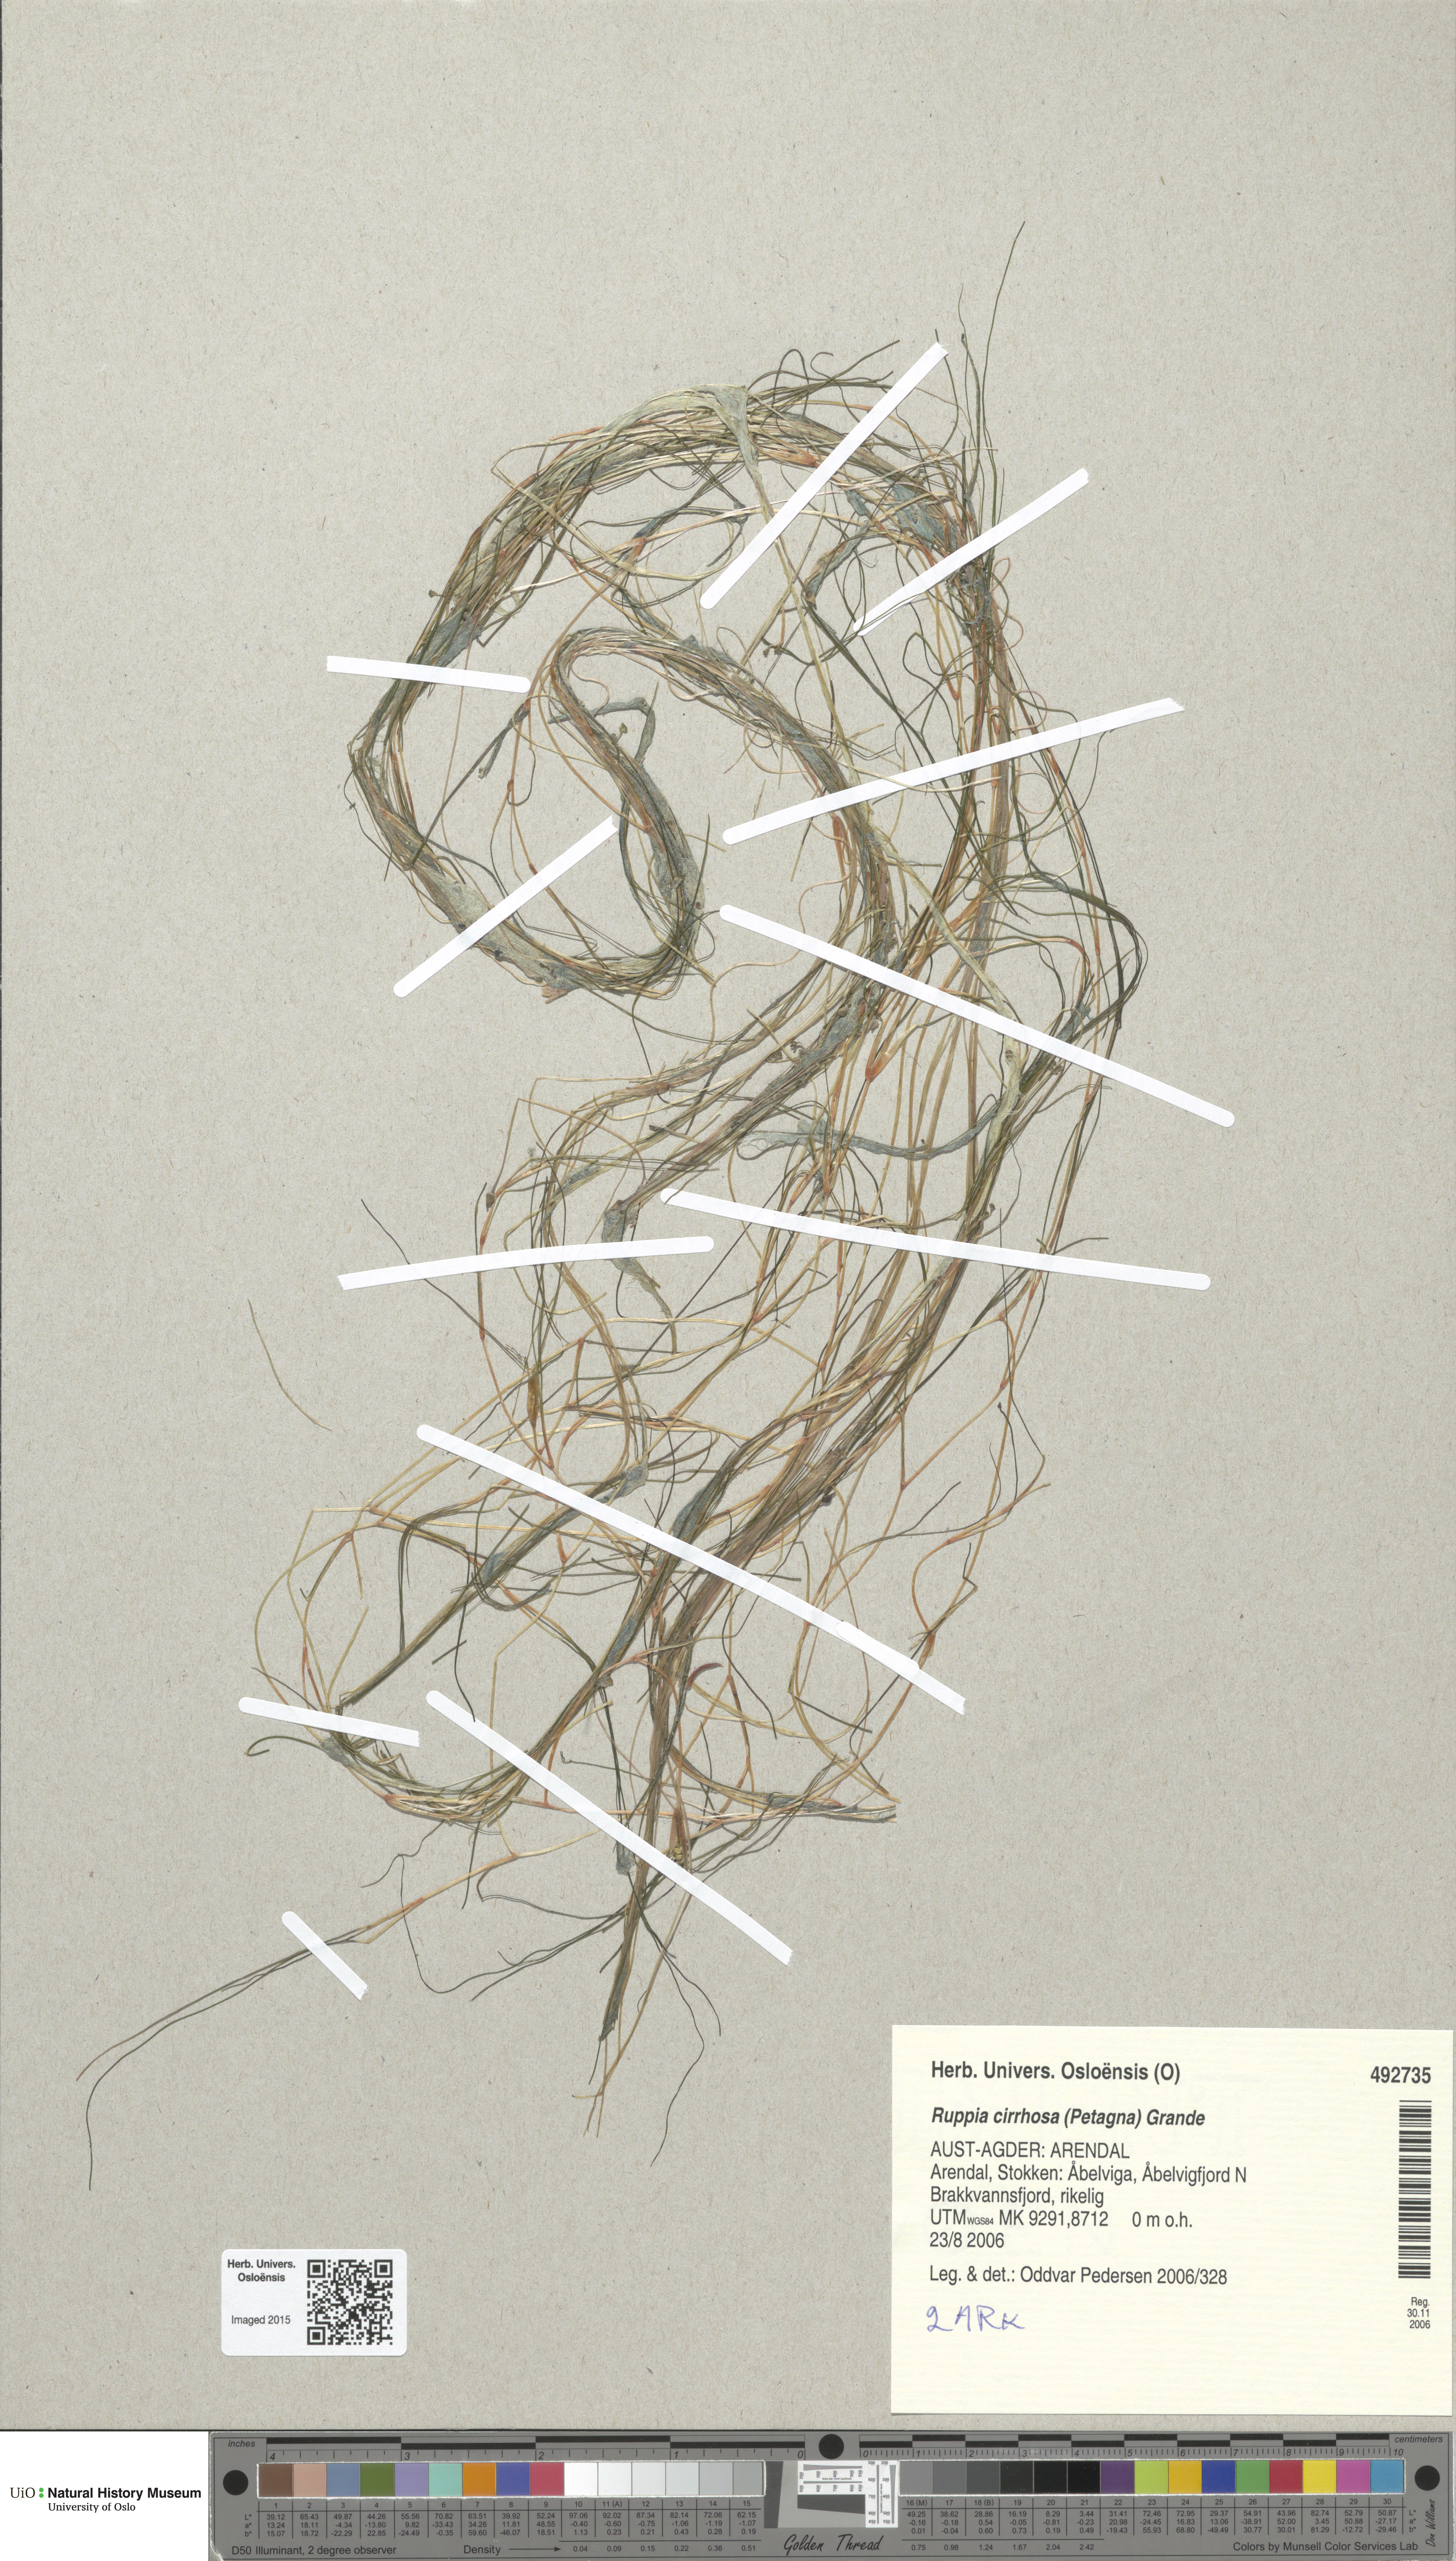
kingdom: Plantae
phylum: Tracheophyta
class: Liliopsida
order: Alismatales
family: Ruppiaceae
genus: Ruppia
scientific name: Ruppia cirrhosa
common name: Spiral tasselweed
